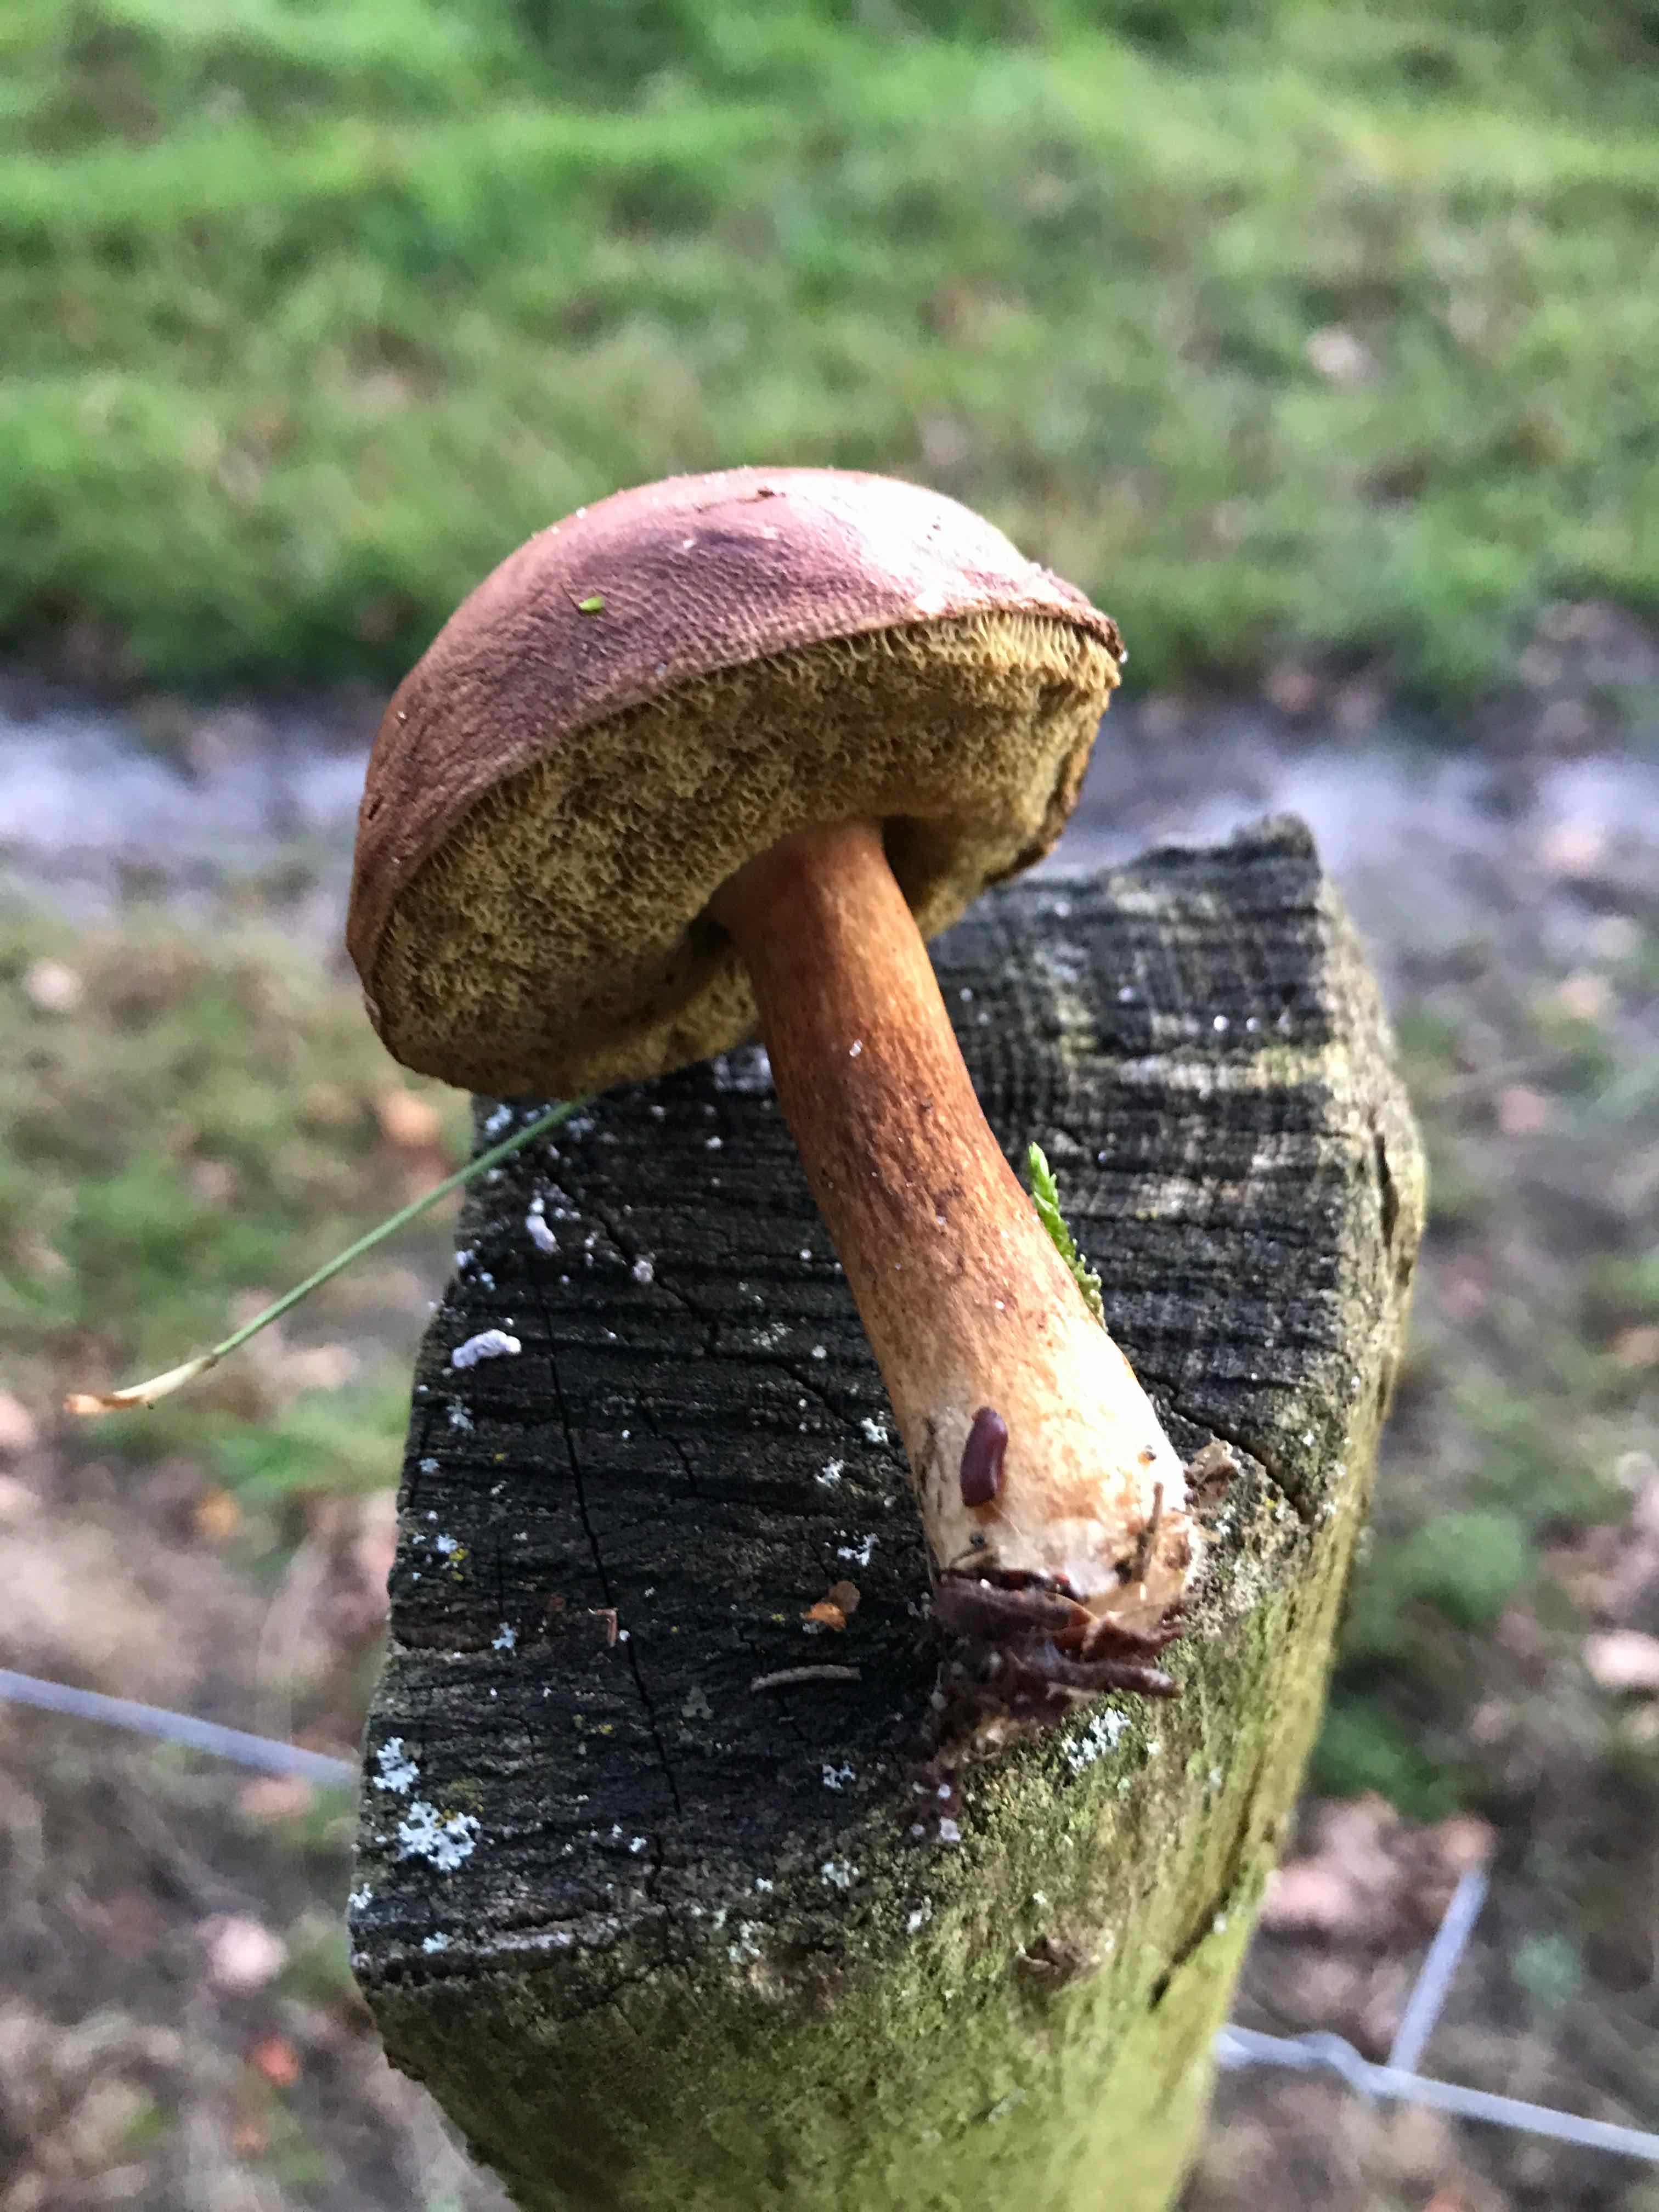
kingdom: Fungi
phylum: Basidiomycota
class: Agaricomycetes
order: Boletales
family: Boletaceae
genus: Imleria
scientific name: Imleria badia
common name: brunstokket rørhat
